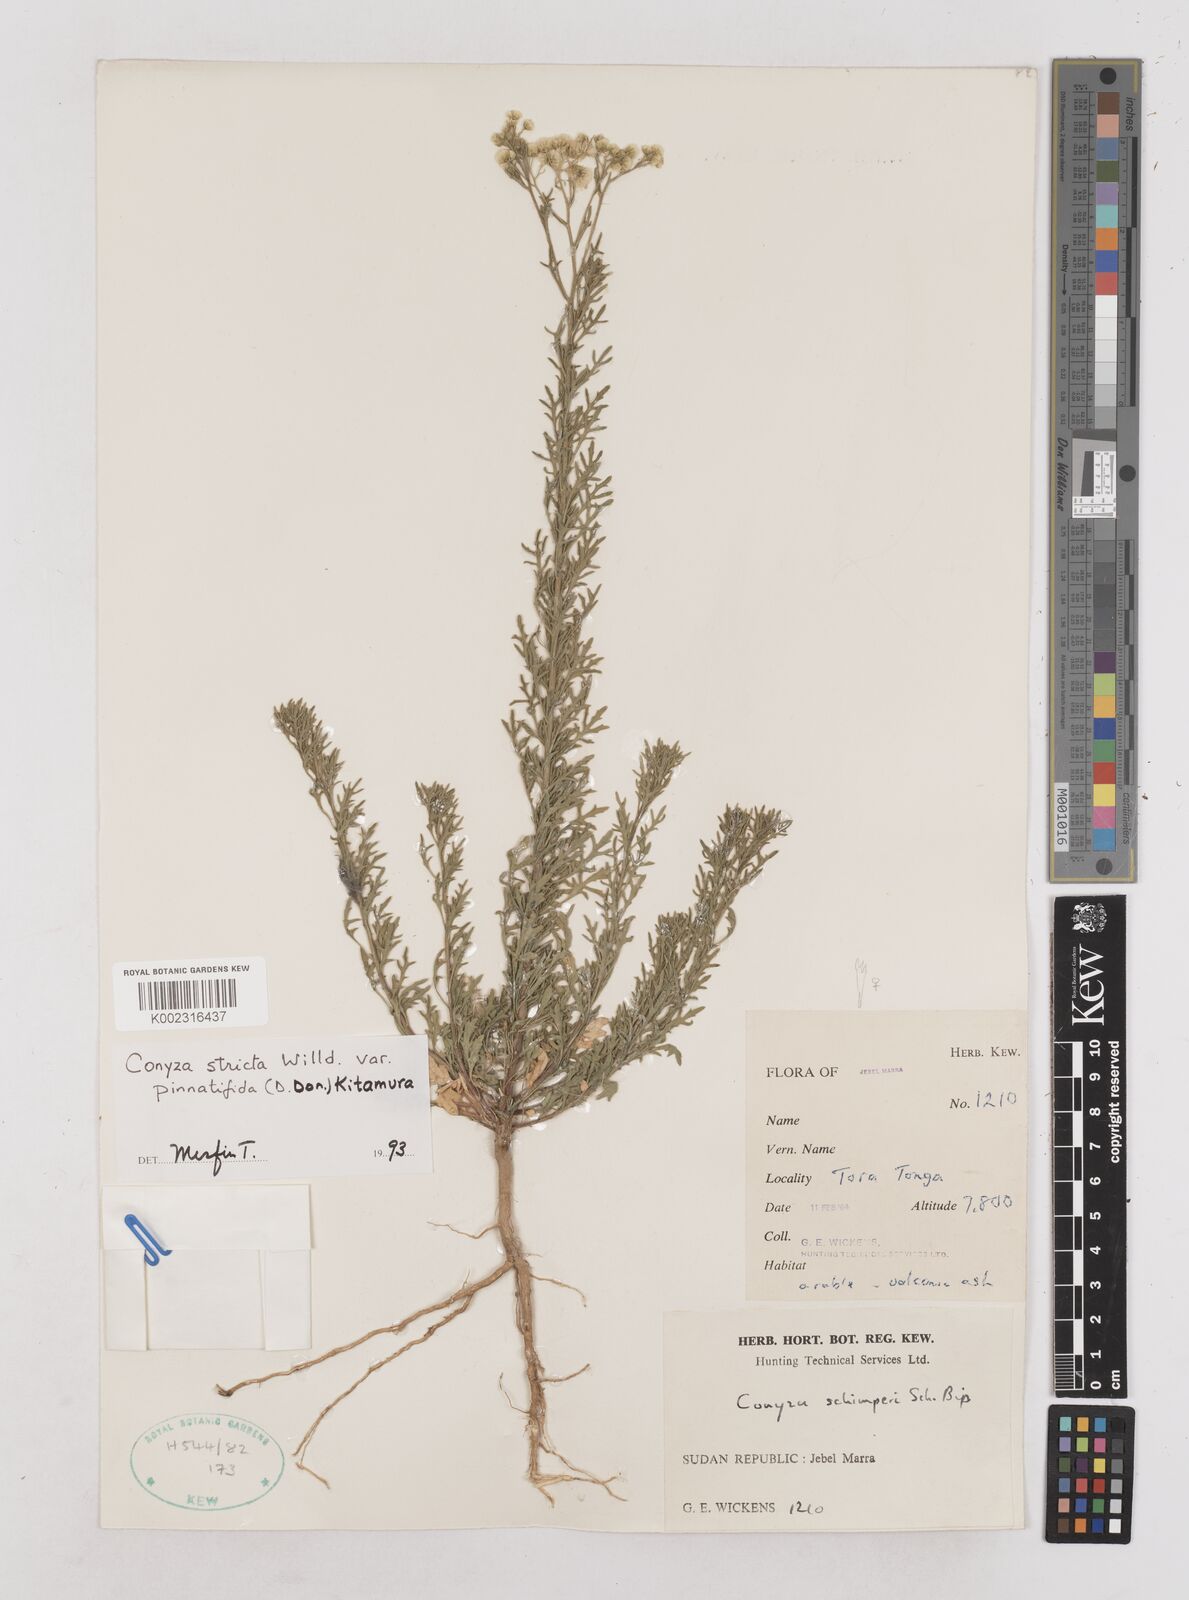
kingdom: Plantae
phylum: Tracheophyta
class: Magnoliopsida
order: Asterales
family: Asteraceae
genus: Nidorella
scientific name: Nidorella triloba
